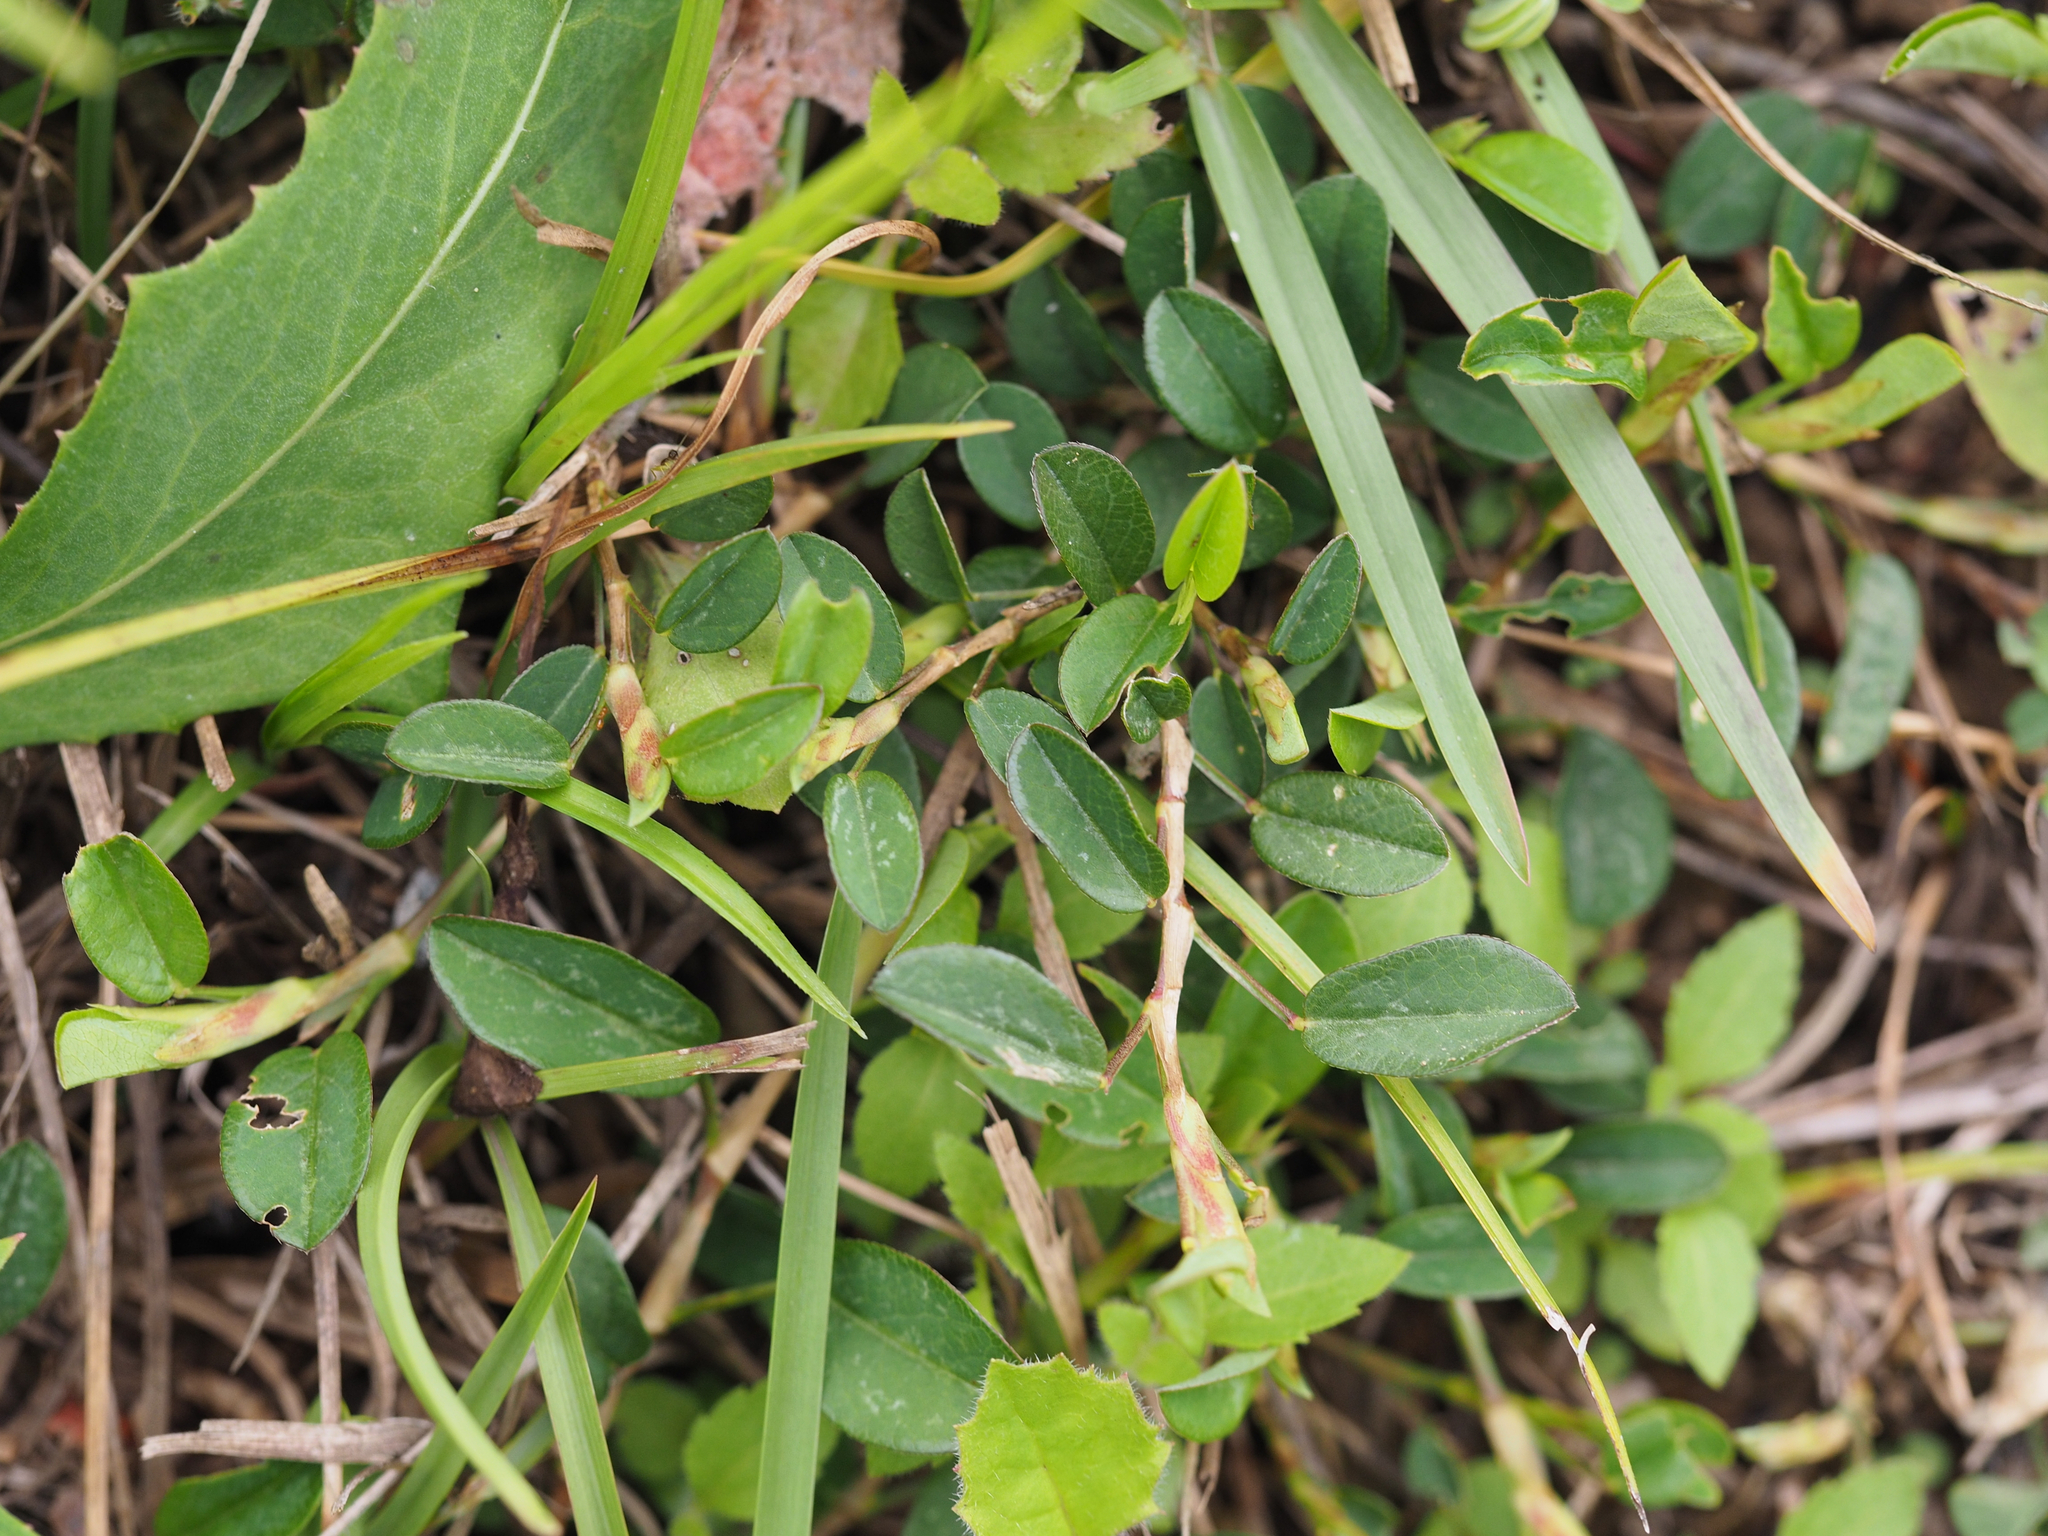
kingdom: Plantae
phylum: Tracheophyta
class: Magnoliopsida
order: Fabales
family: Fabaceae
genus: Alysicarpus
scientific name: Alysicarpus vaginalis
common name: White moneywort
